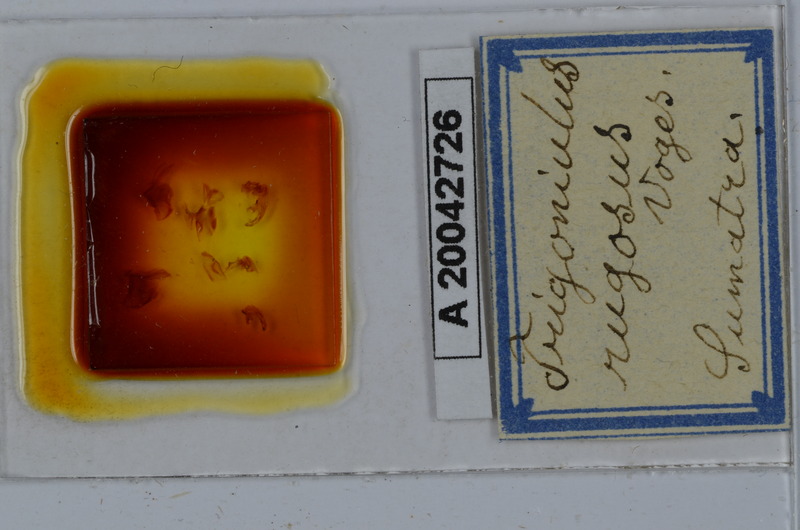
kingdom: Animalia
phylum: Arthropoda
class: Diplopoda
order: Spirobolida
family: Pachybolidae
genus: Trigoniulus
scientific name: Trigoniulus corallinus
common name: Millipede
